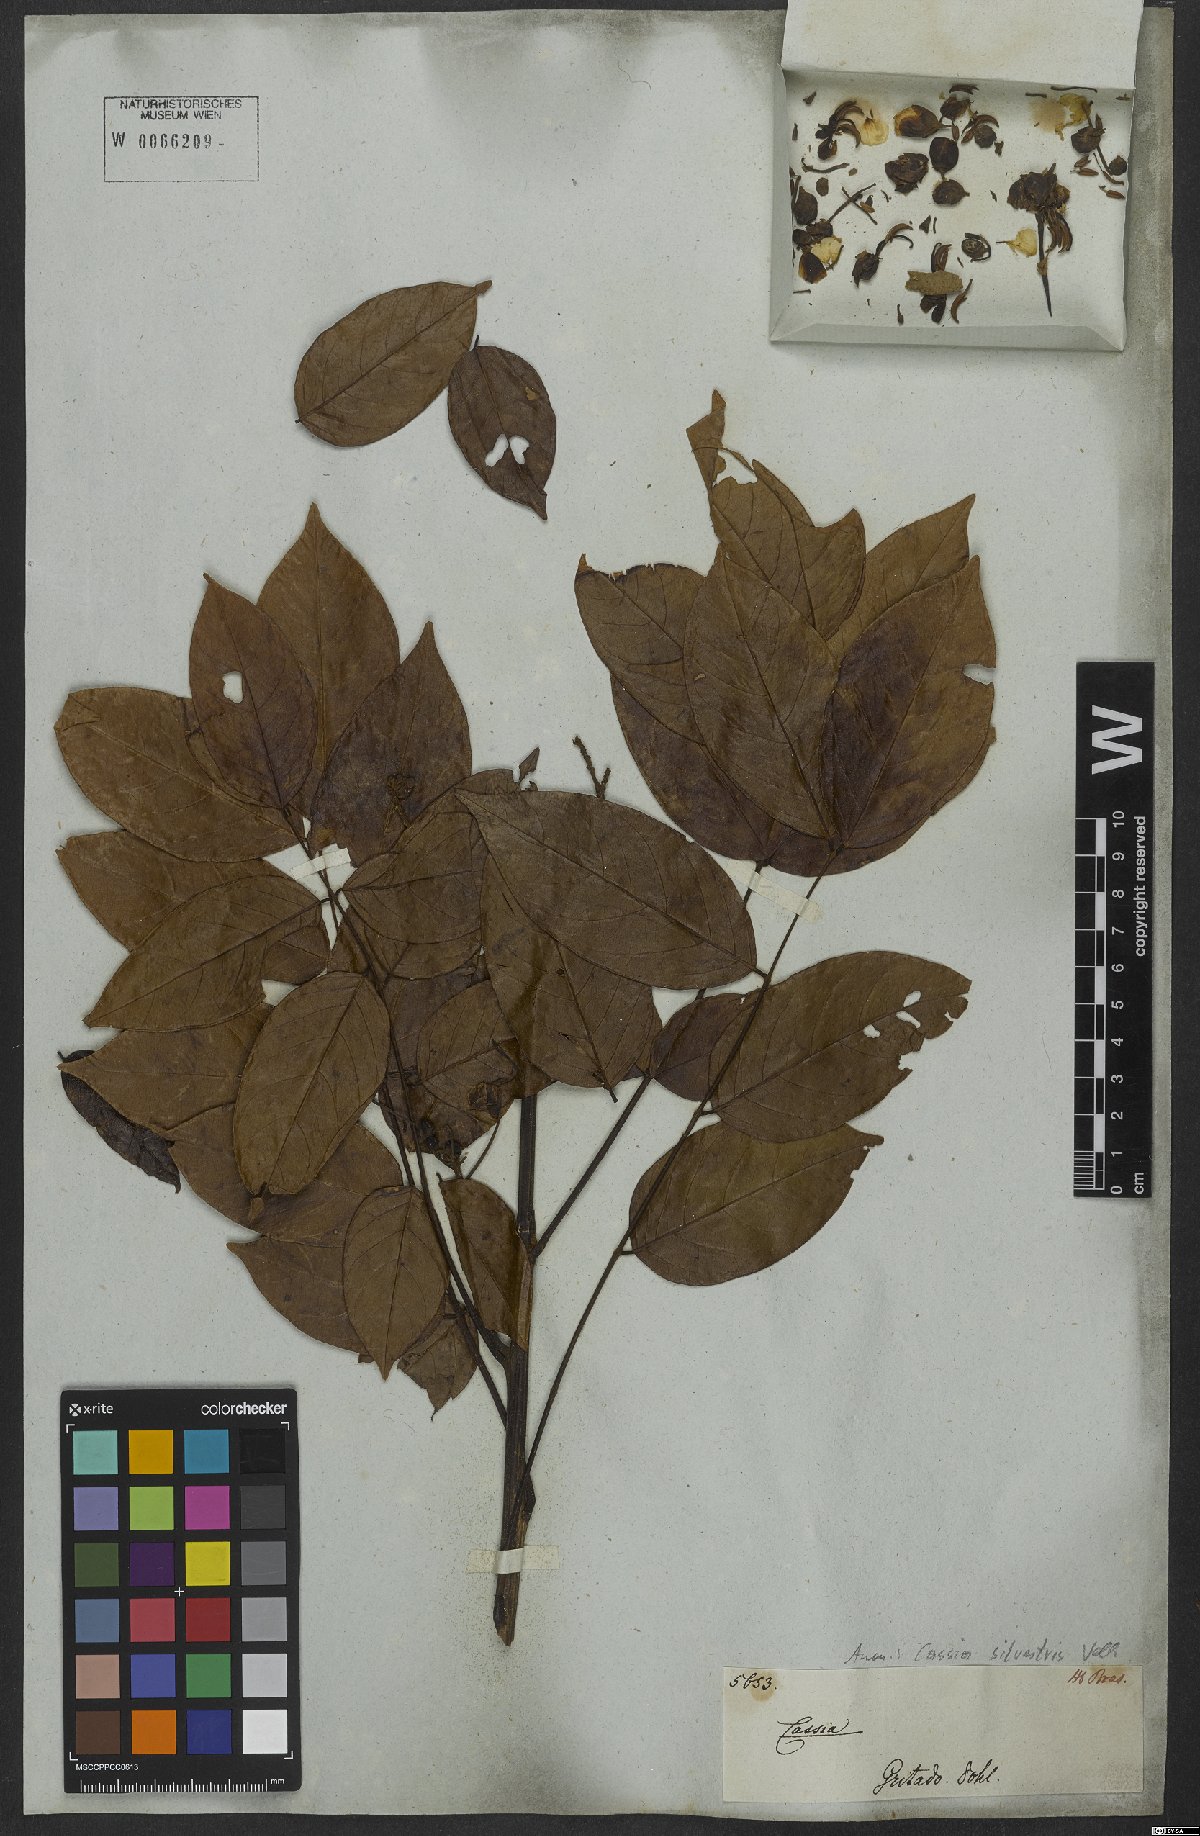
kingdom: Plantae
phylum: Tracheophyta
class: Magnoliopsida
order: Fabales
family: Fabaceae
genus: Senna
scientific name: Senna silvestris
